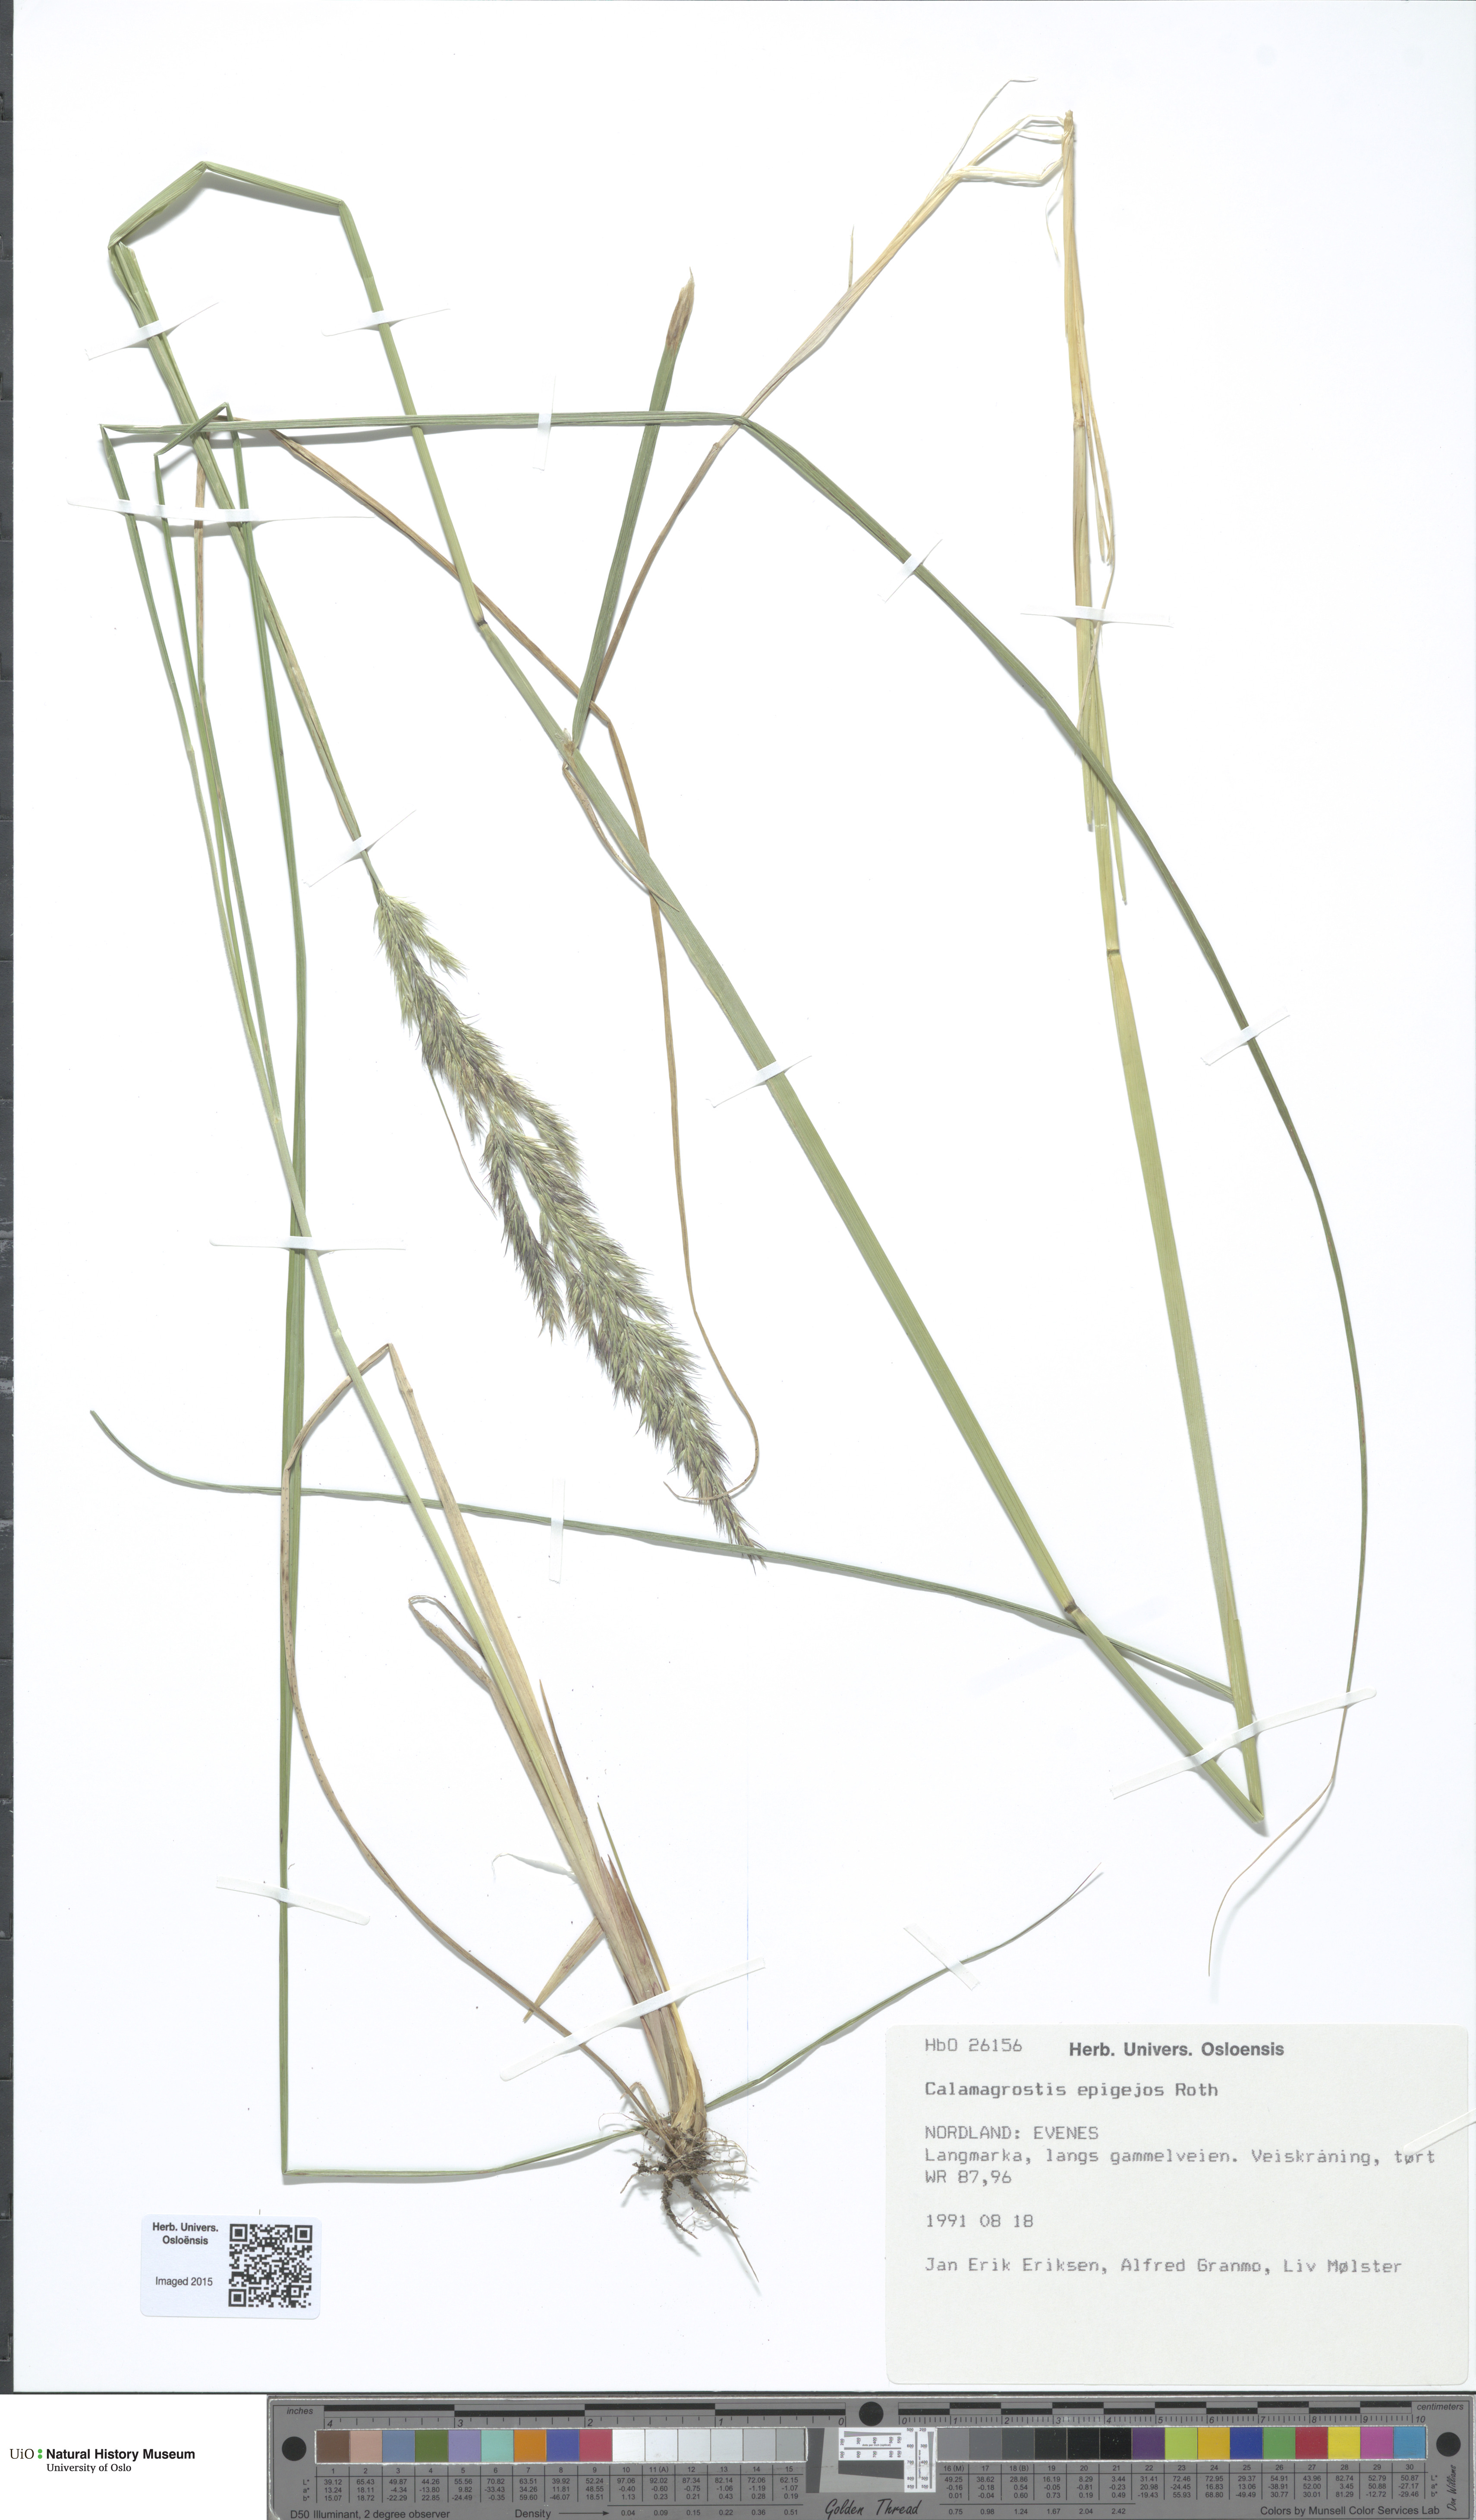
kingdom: Plantae
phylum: Tracheophyta
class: Liliopsida
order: Poales
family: Poaceae
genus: Calamagrostis
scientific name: Calamagrostis epigejos
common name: Wood small-reed
